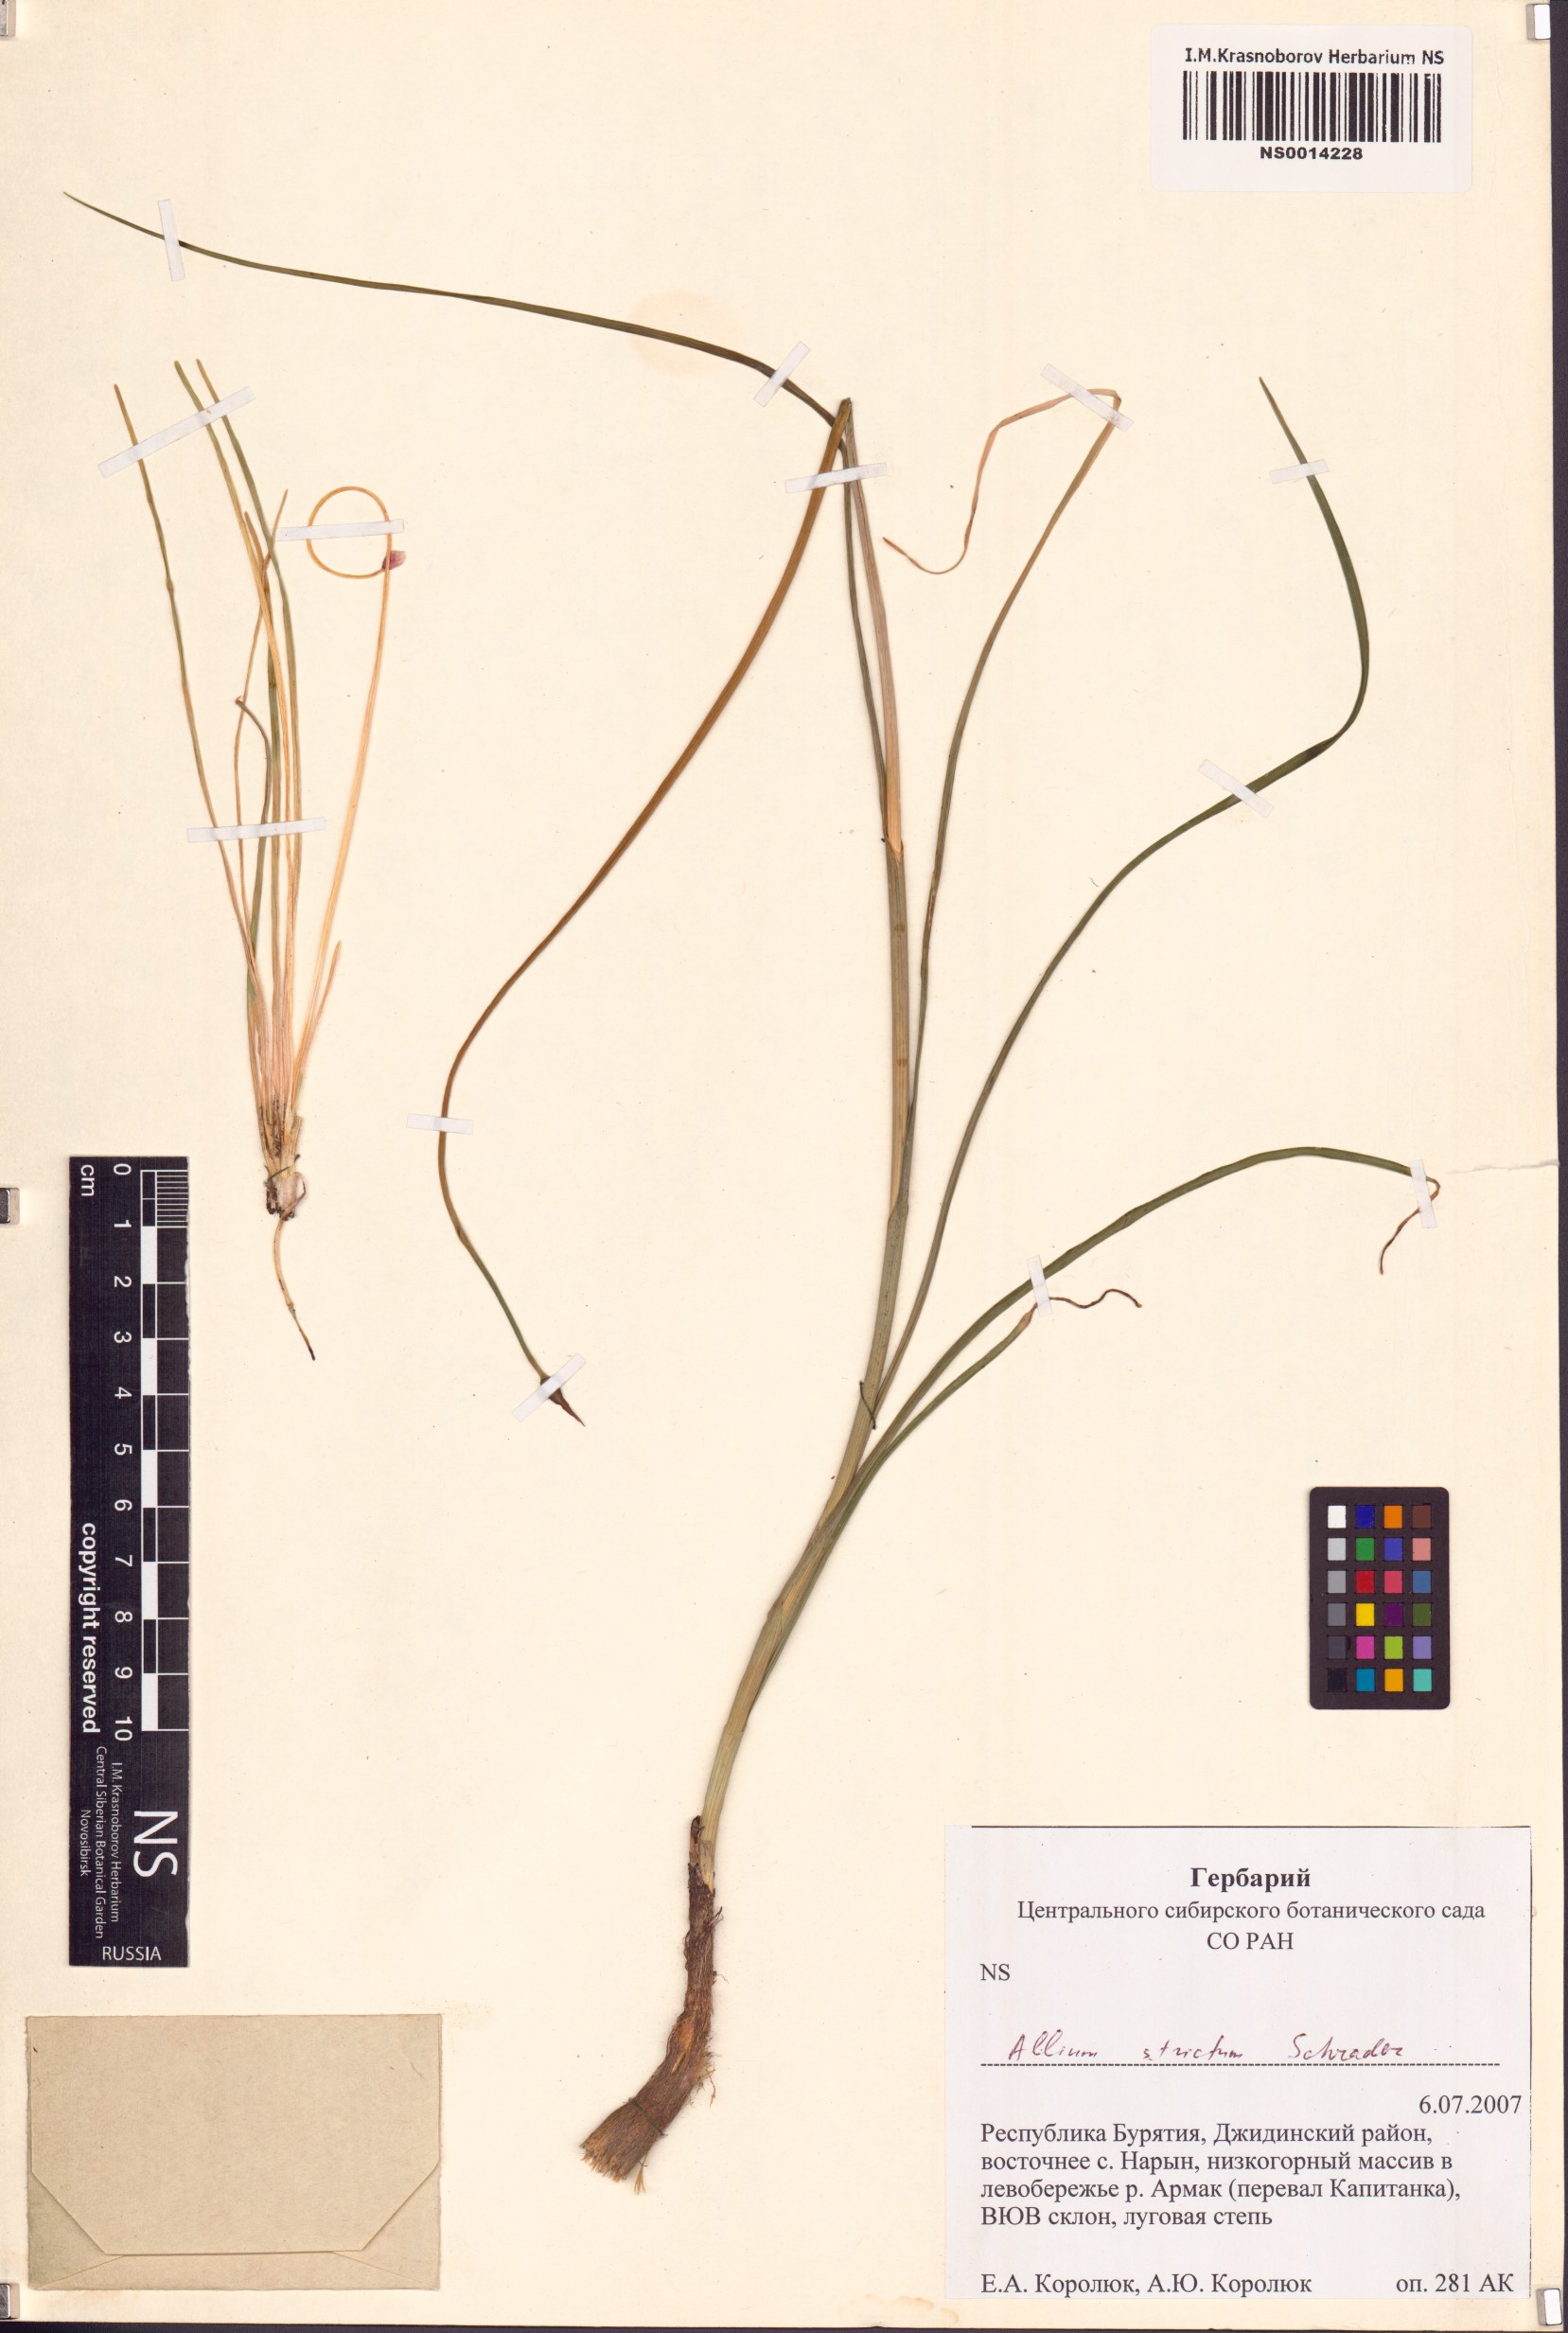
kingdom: Plantae
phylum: Tracheophyta
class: Liliopsida
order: Asparagales
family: Amaryllidaceae
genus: Allium
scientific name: Allium strictum
